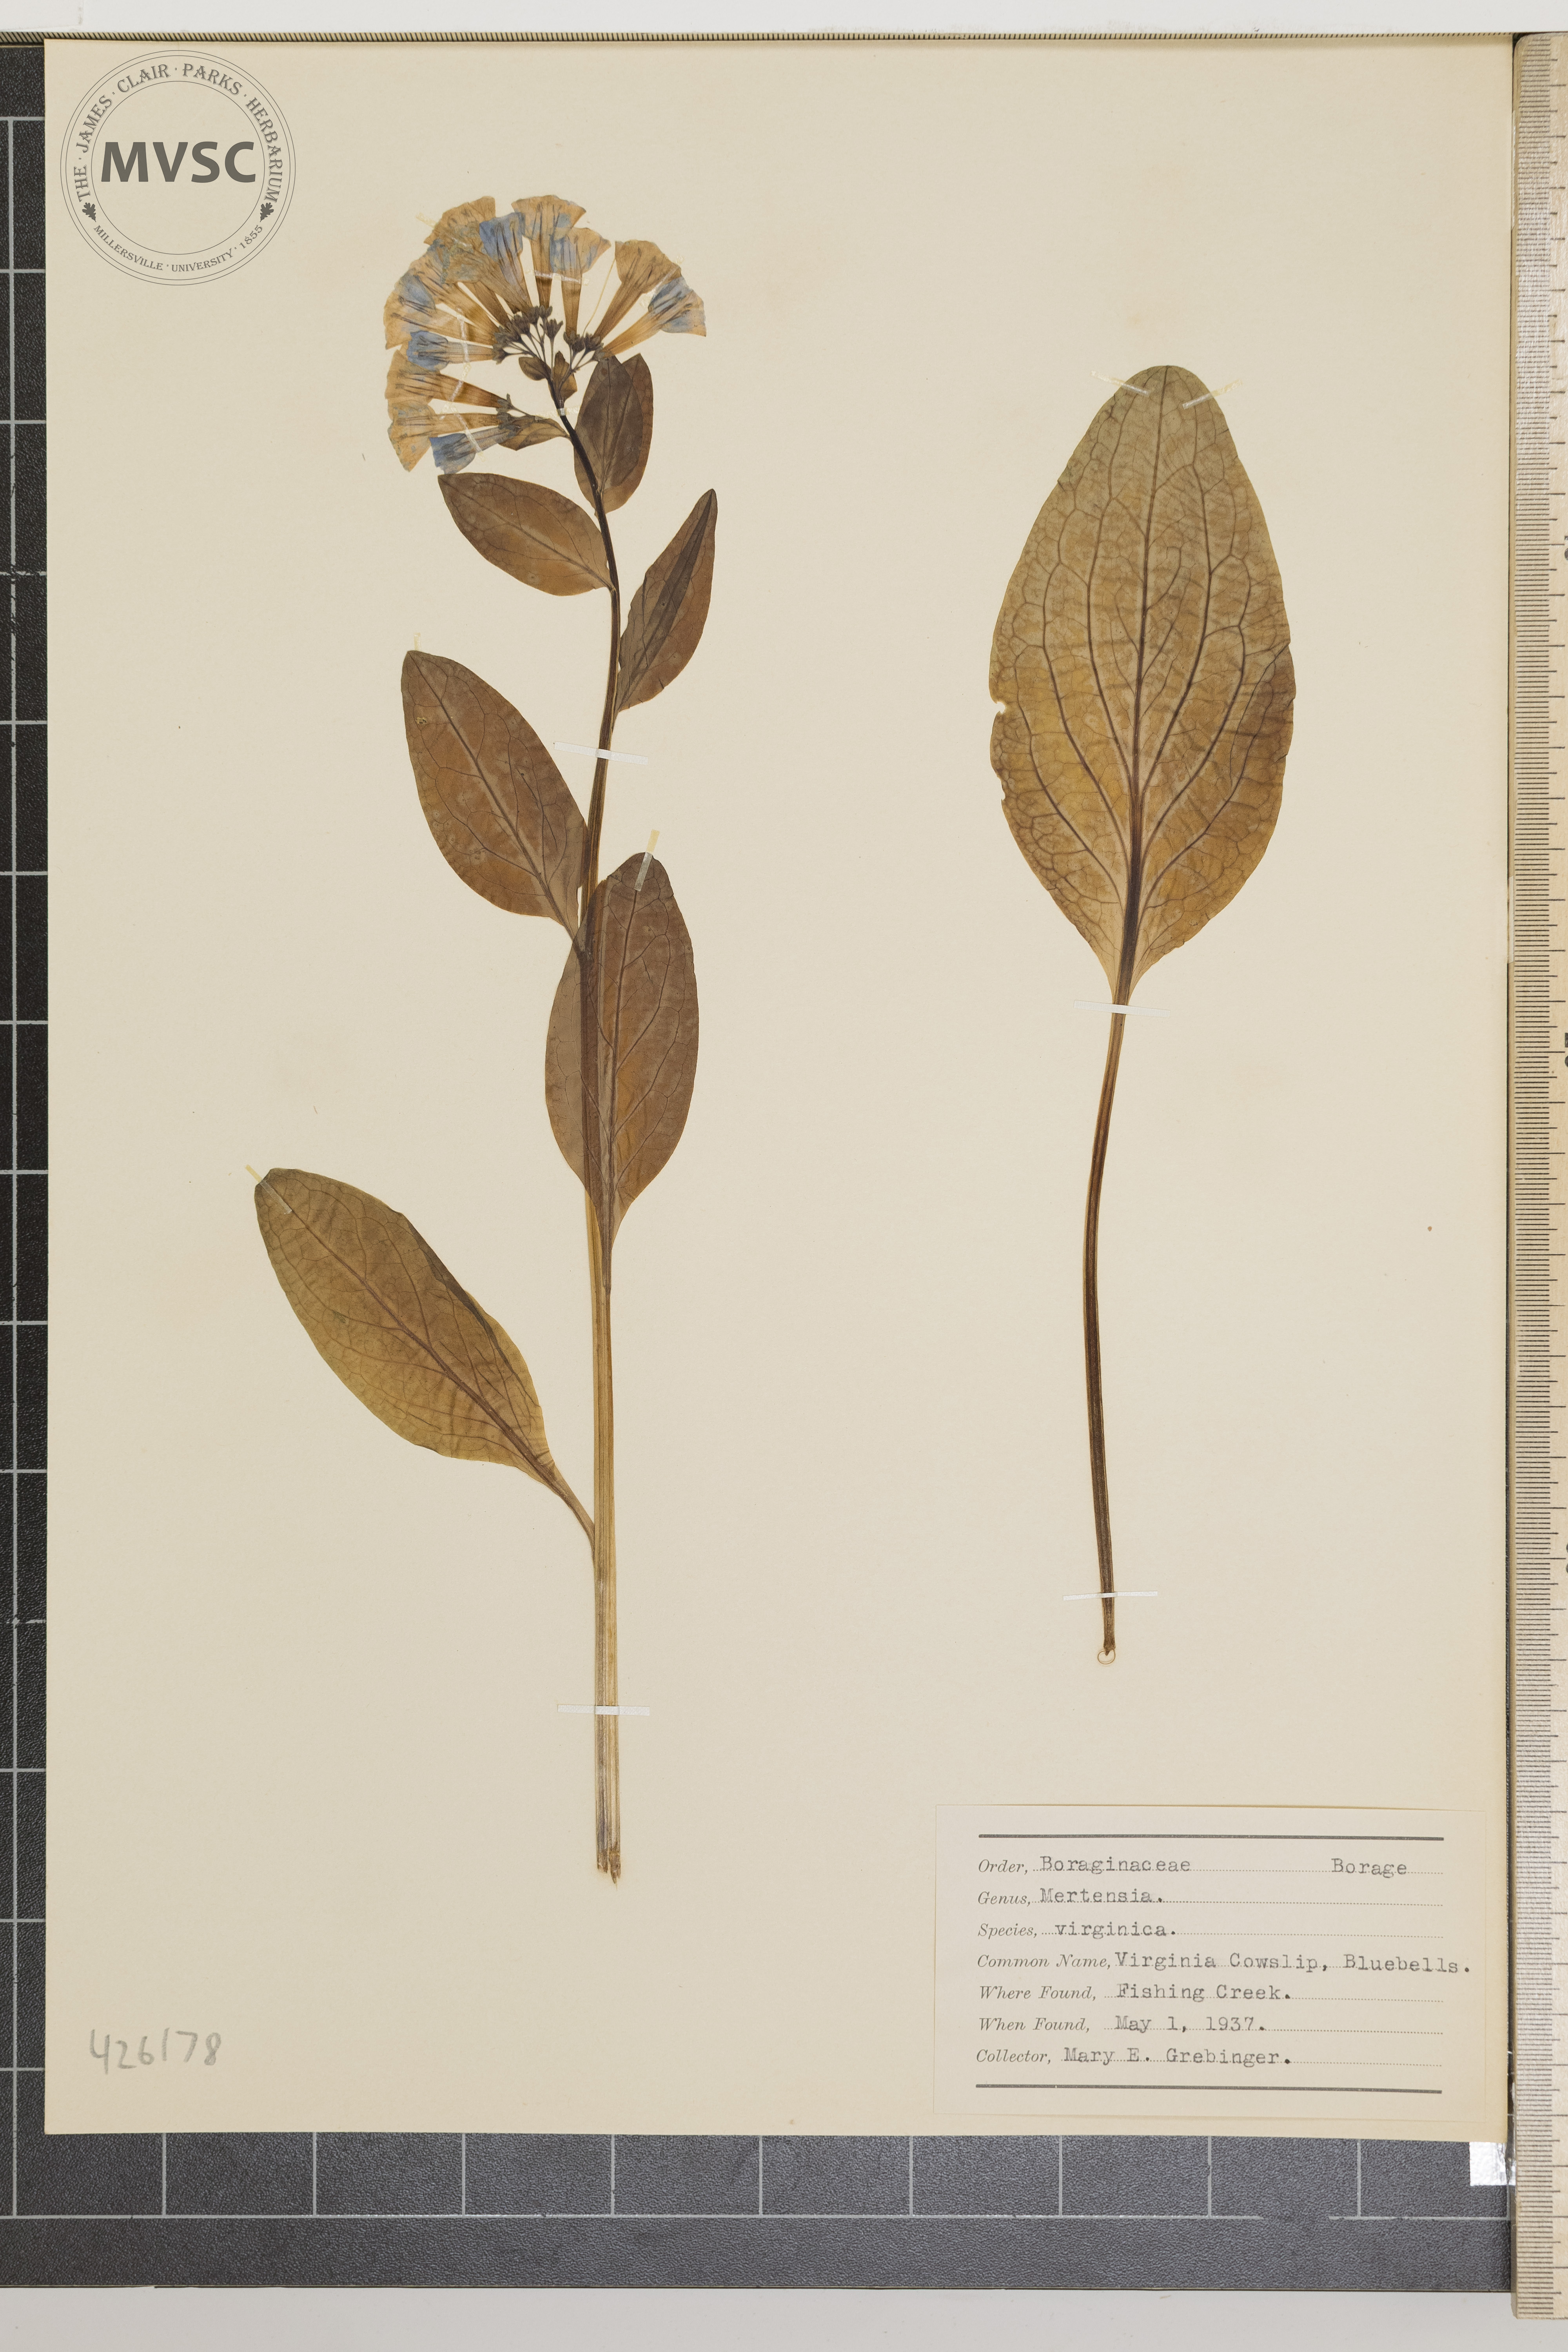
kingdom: Plantae
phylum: Tracheophyta
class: Magnoliopsida
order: Boraginales
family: Boraginaceae
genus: Mertensia
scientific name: Mertensia virginica
